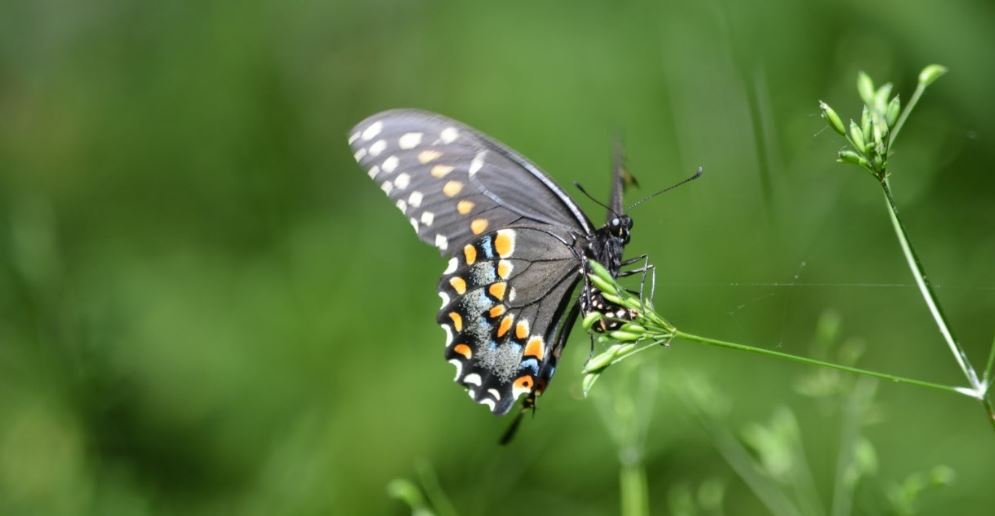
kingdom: Animalia
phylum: Arthropoda
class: Insecta
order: Lepidoptera
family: Papilionidae
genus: Papilio
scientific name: Papilio polyxenes
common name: Black Swallowtail
